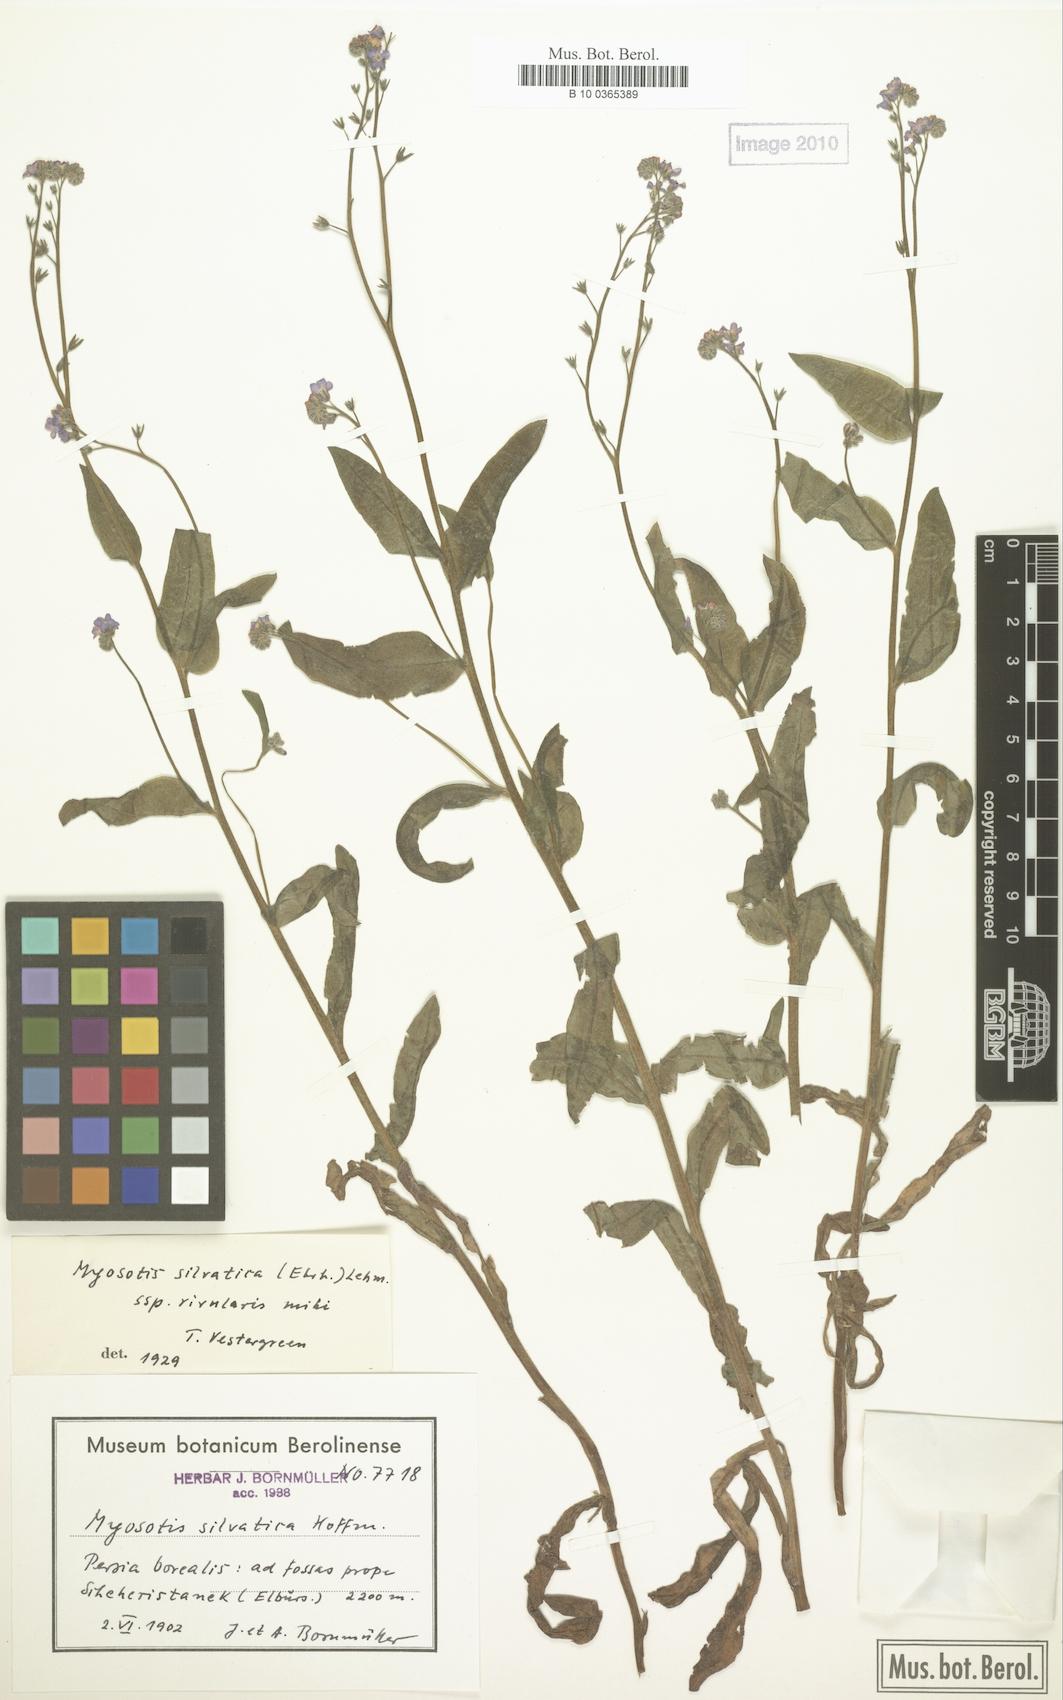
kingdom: Plantae
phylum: Tracheophyta
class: Magnoliopsida
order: Boraginales
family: Boraginaceae
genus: Myosotis
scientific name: Myosotis rivularis
